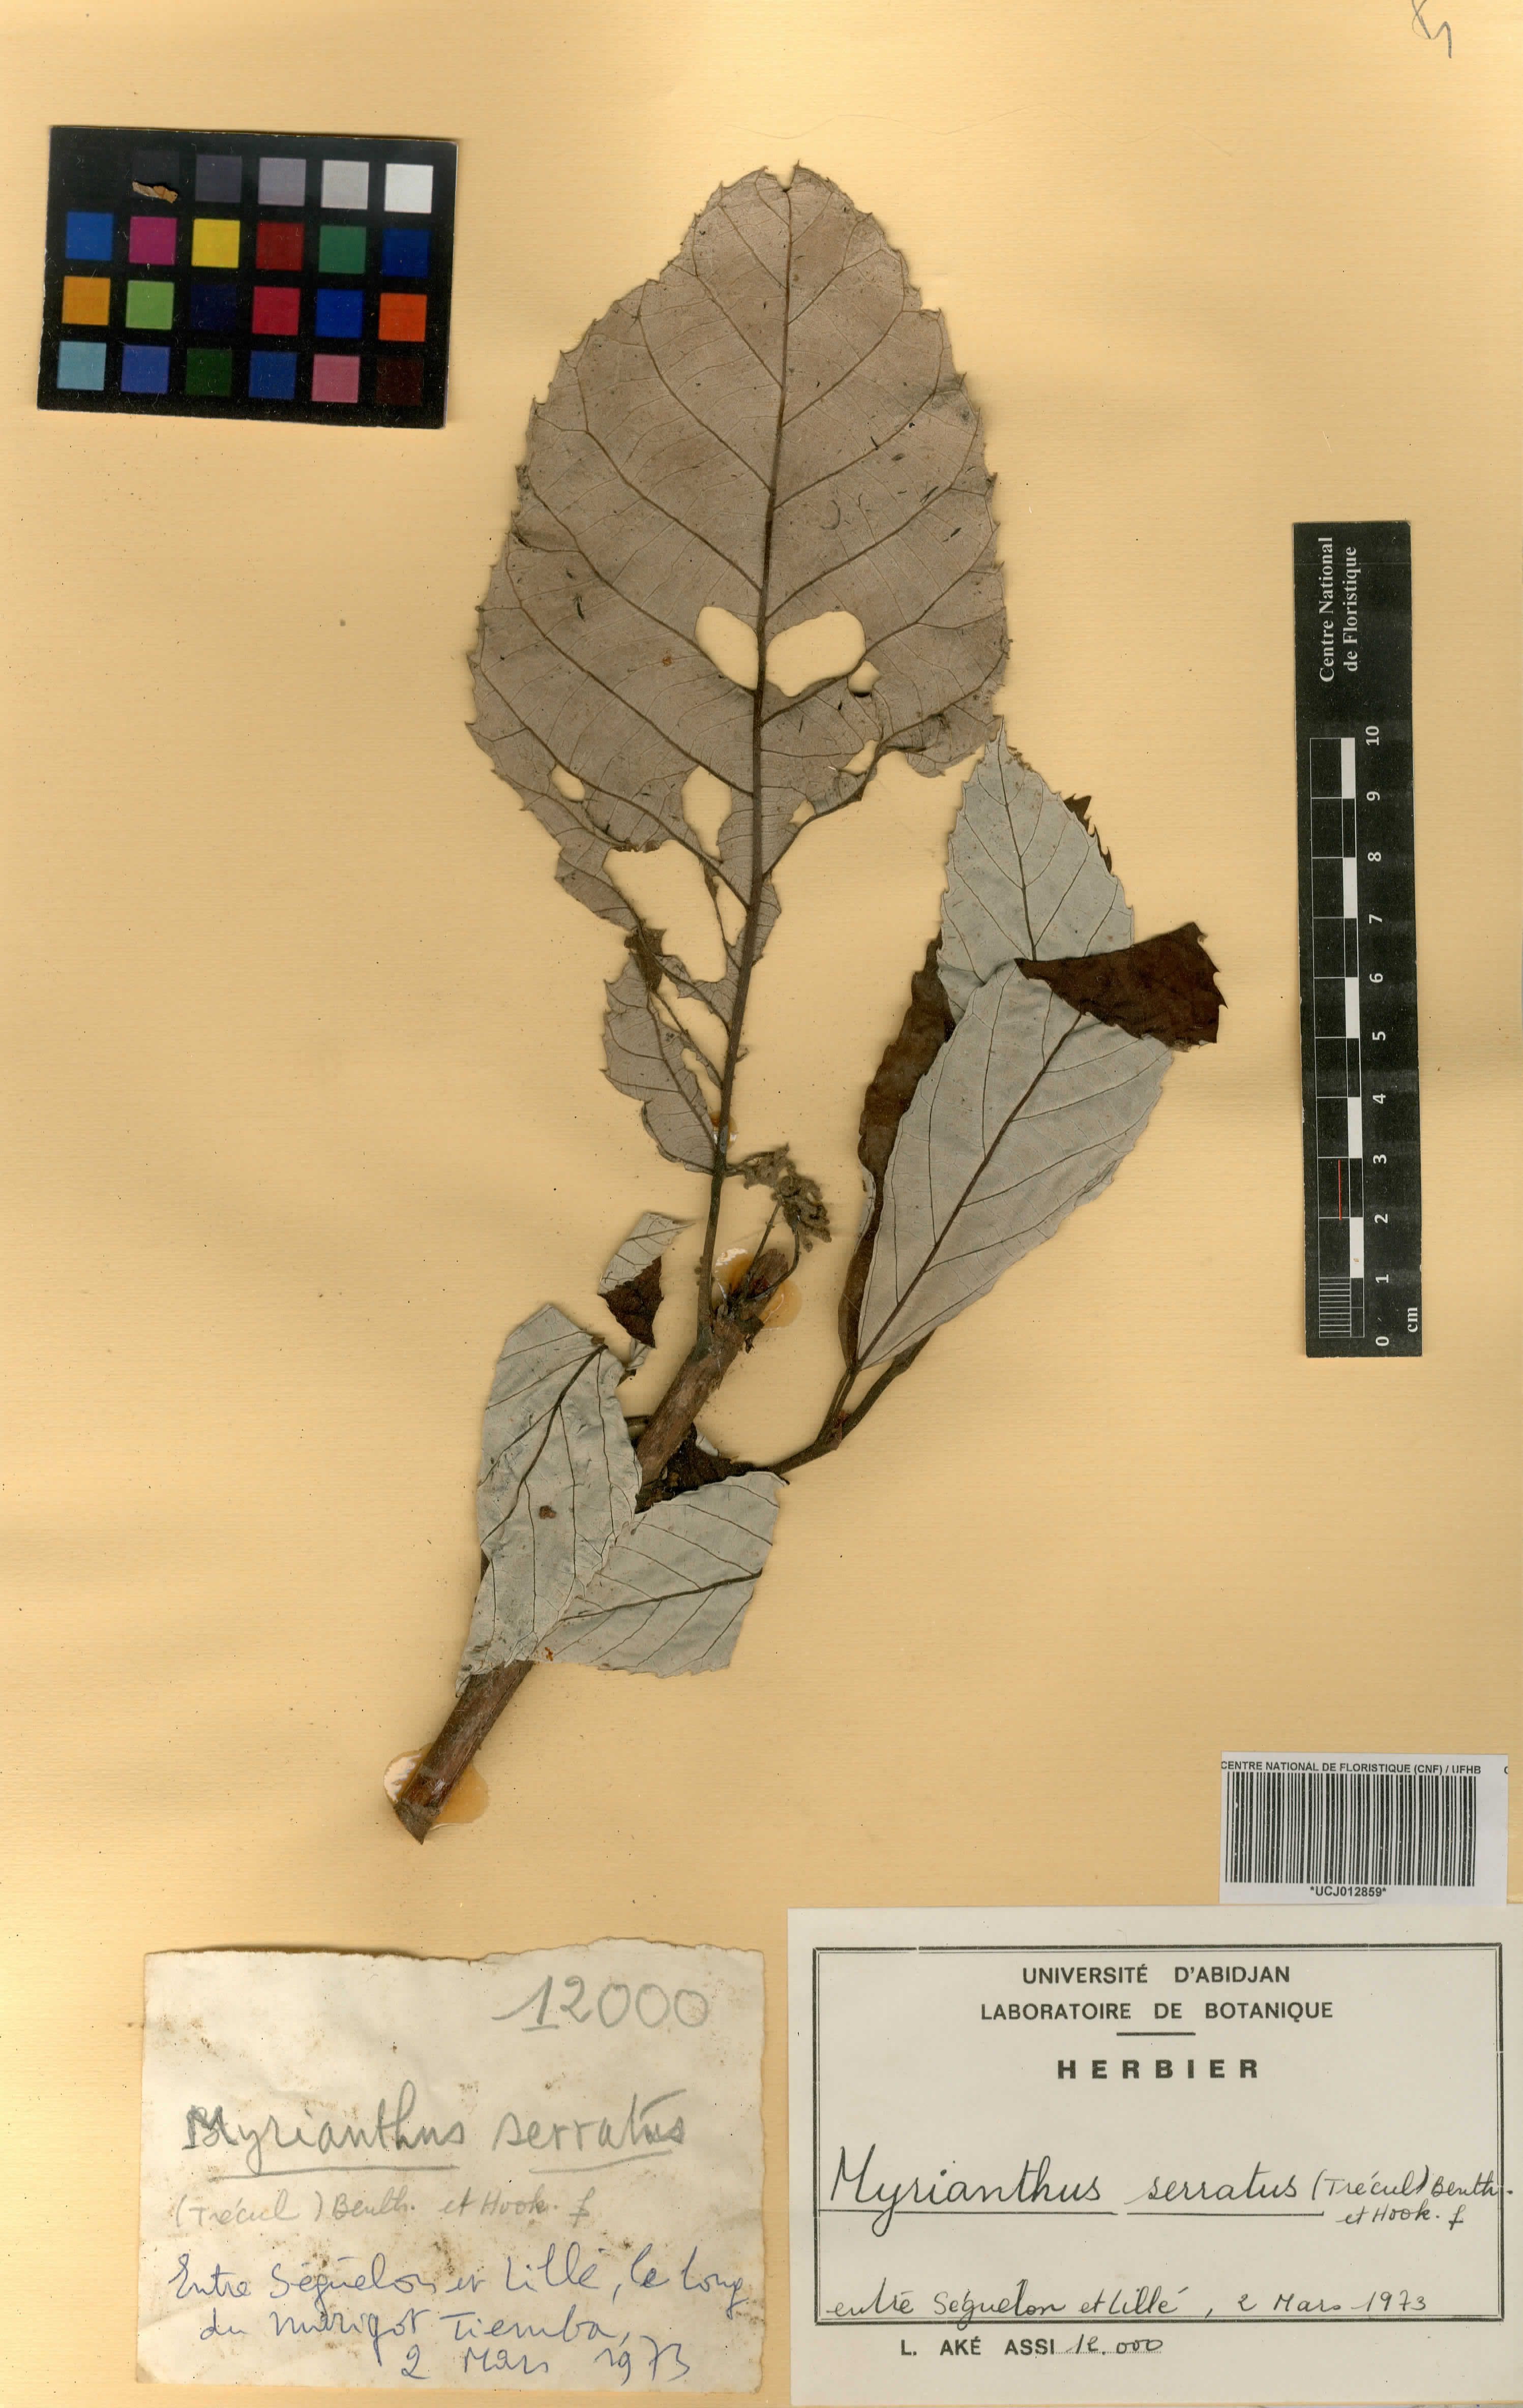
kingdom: Plantae
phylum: Tracheophyta
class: Magnoliopsida
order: Rosales
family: Urticaceae
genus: Myrianthus
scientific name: Myrianthus serratus
